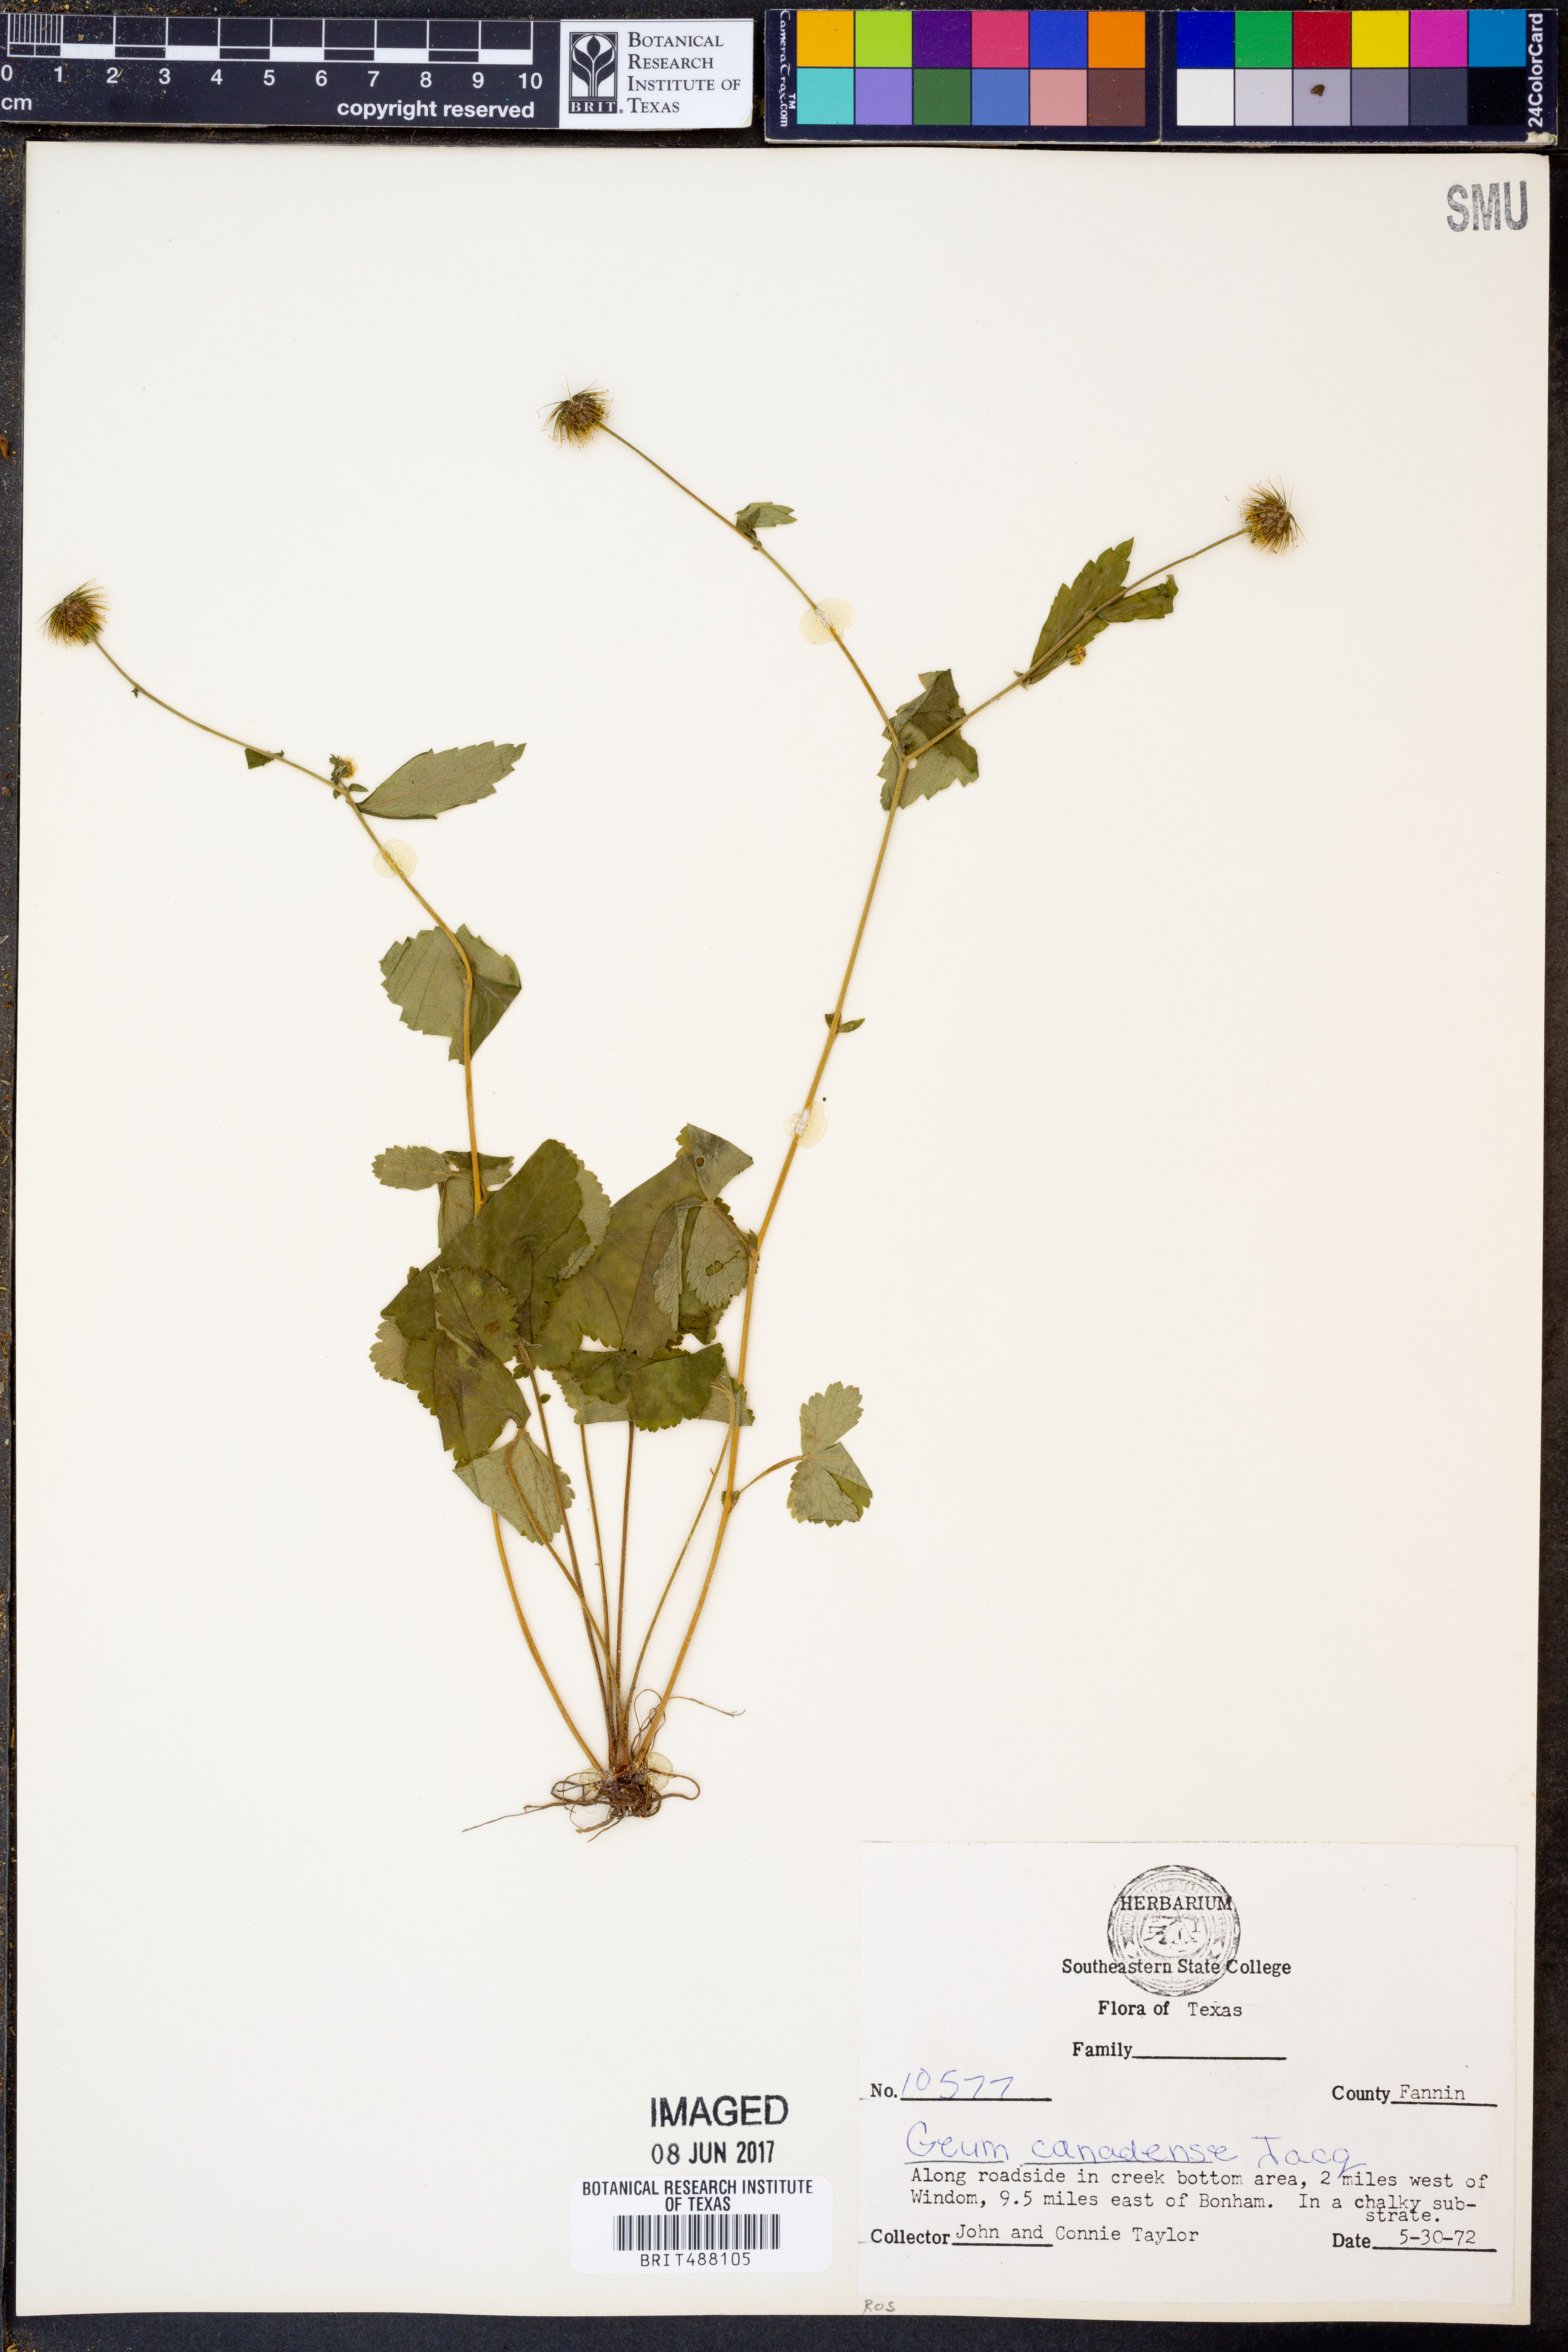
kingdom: Plantae
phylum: Tracheophyta
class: Magnoliopsida
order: Rosales
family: Rosaceae
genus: Geum
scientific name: Geum canadense
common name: White avens
